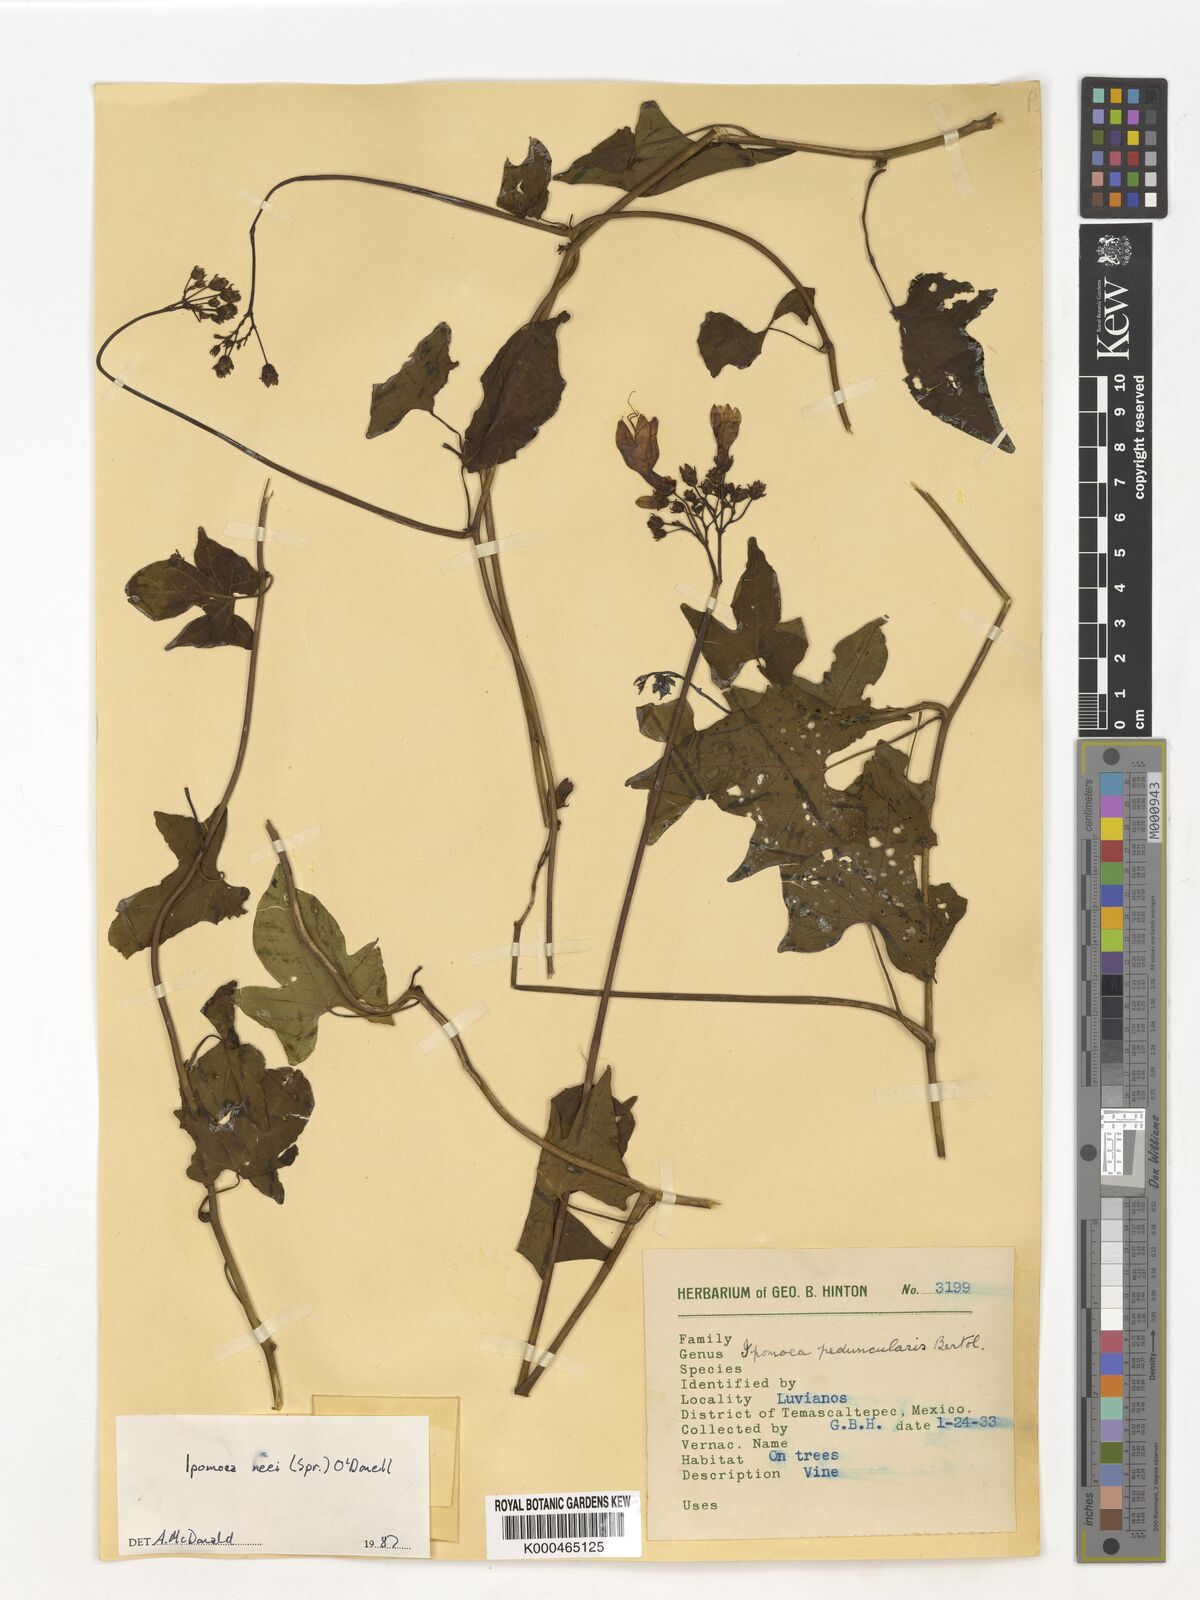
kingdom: Plantae
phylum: Tracheophyta
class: Magnoliopsida
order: Solanales
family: Convolvulaceae
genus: Ipomoea
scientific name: Ipomoea
